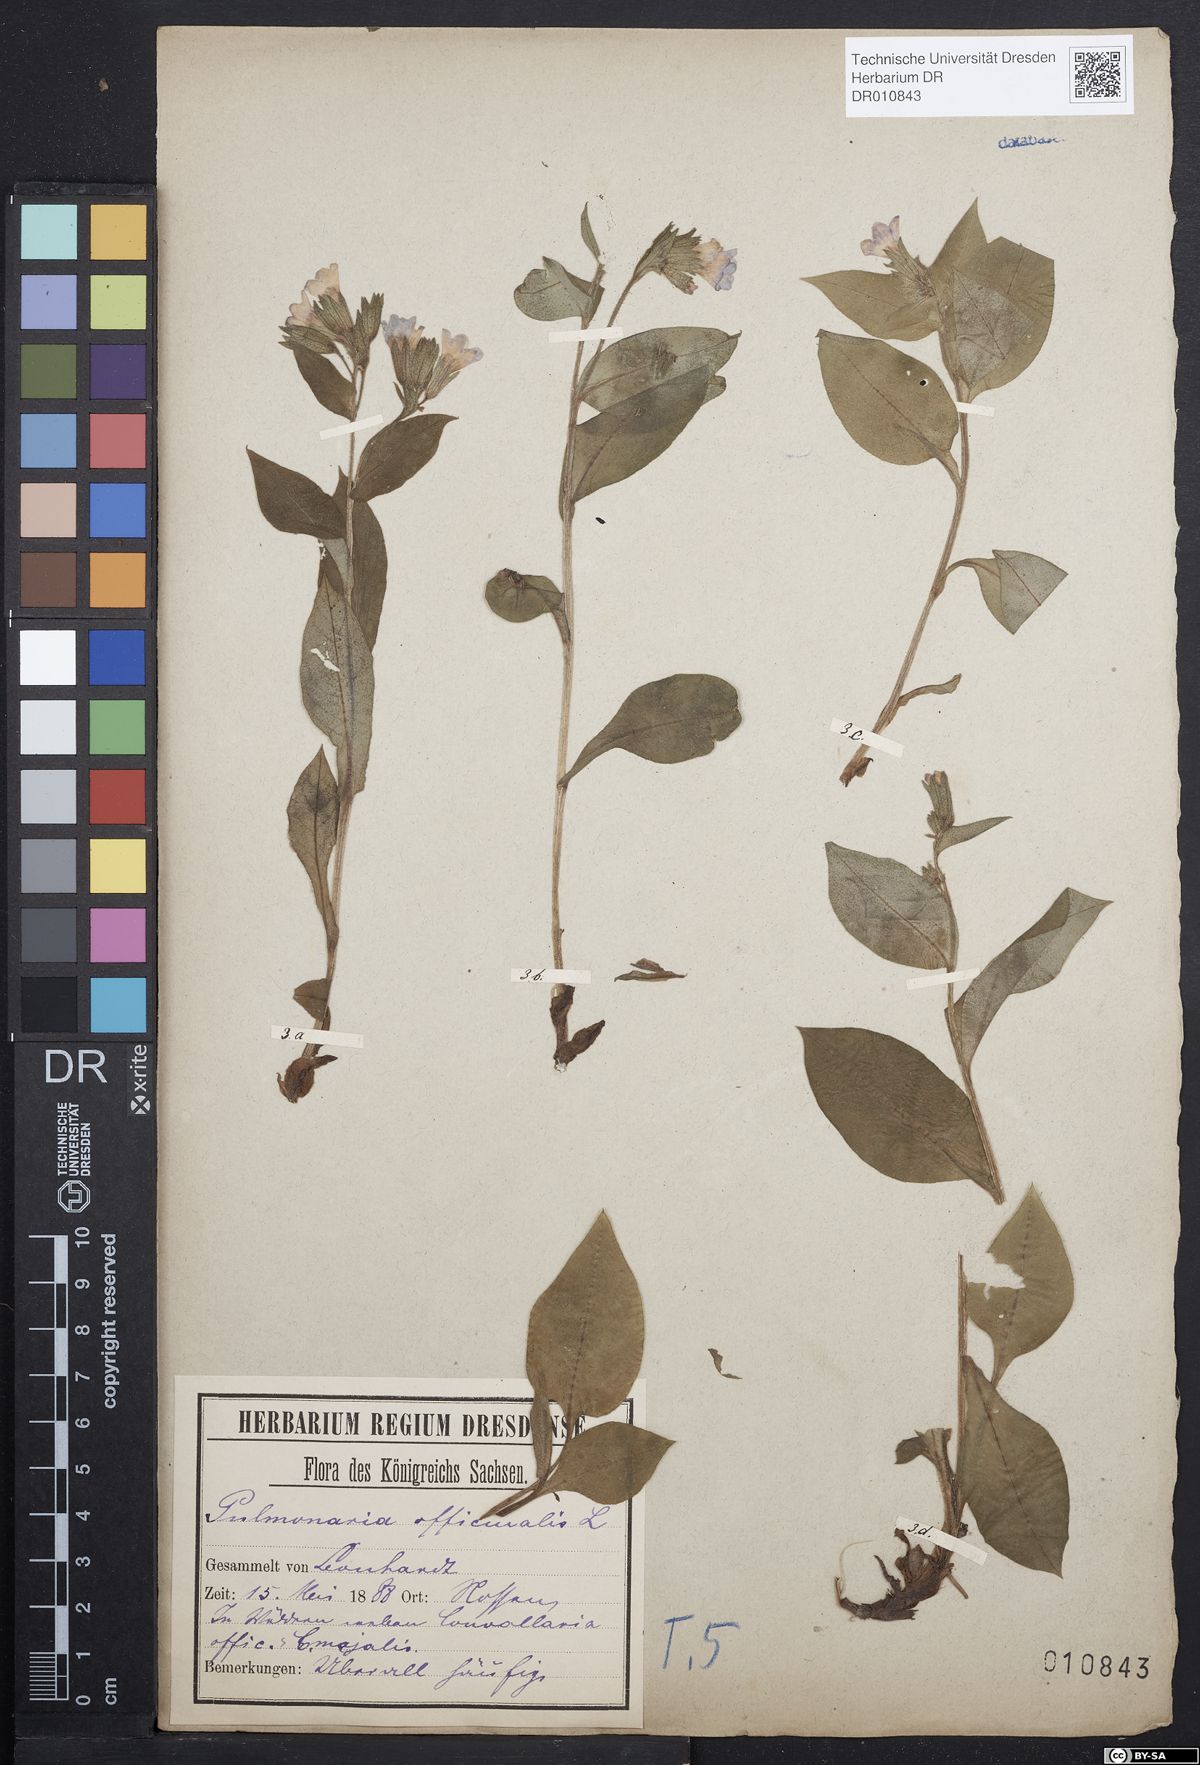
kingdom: Plantae
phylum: Tracheophyta
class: Magnoliopsida
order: Boraginales
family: Boraginaceae
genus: Pulmonaria
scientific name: Pulmonaria officinalis
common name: Lungwort
